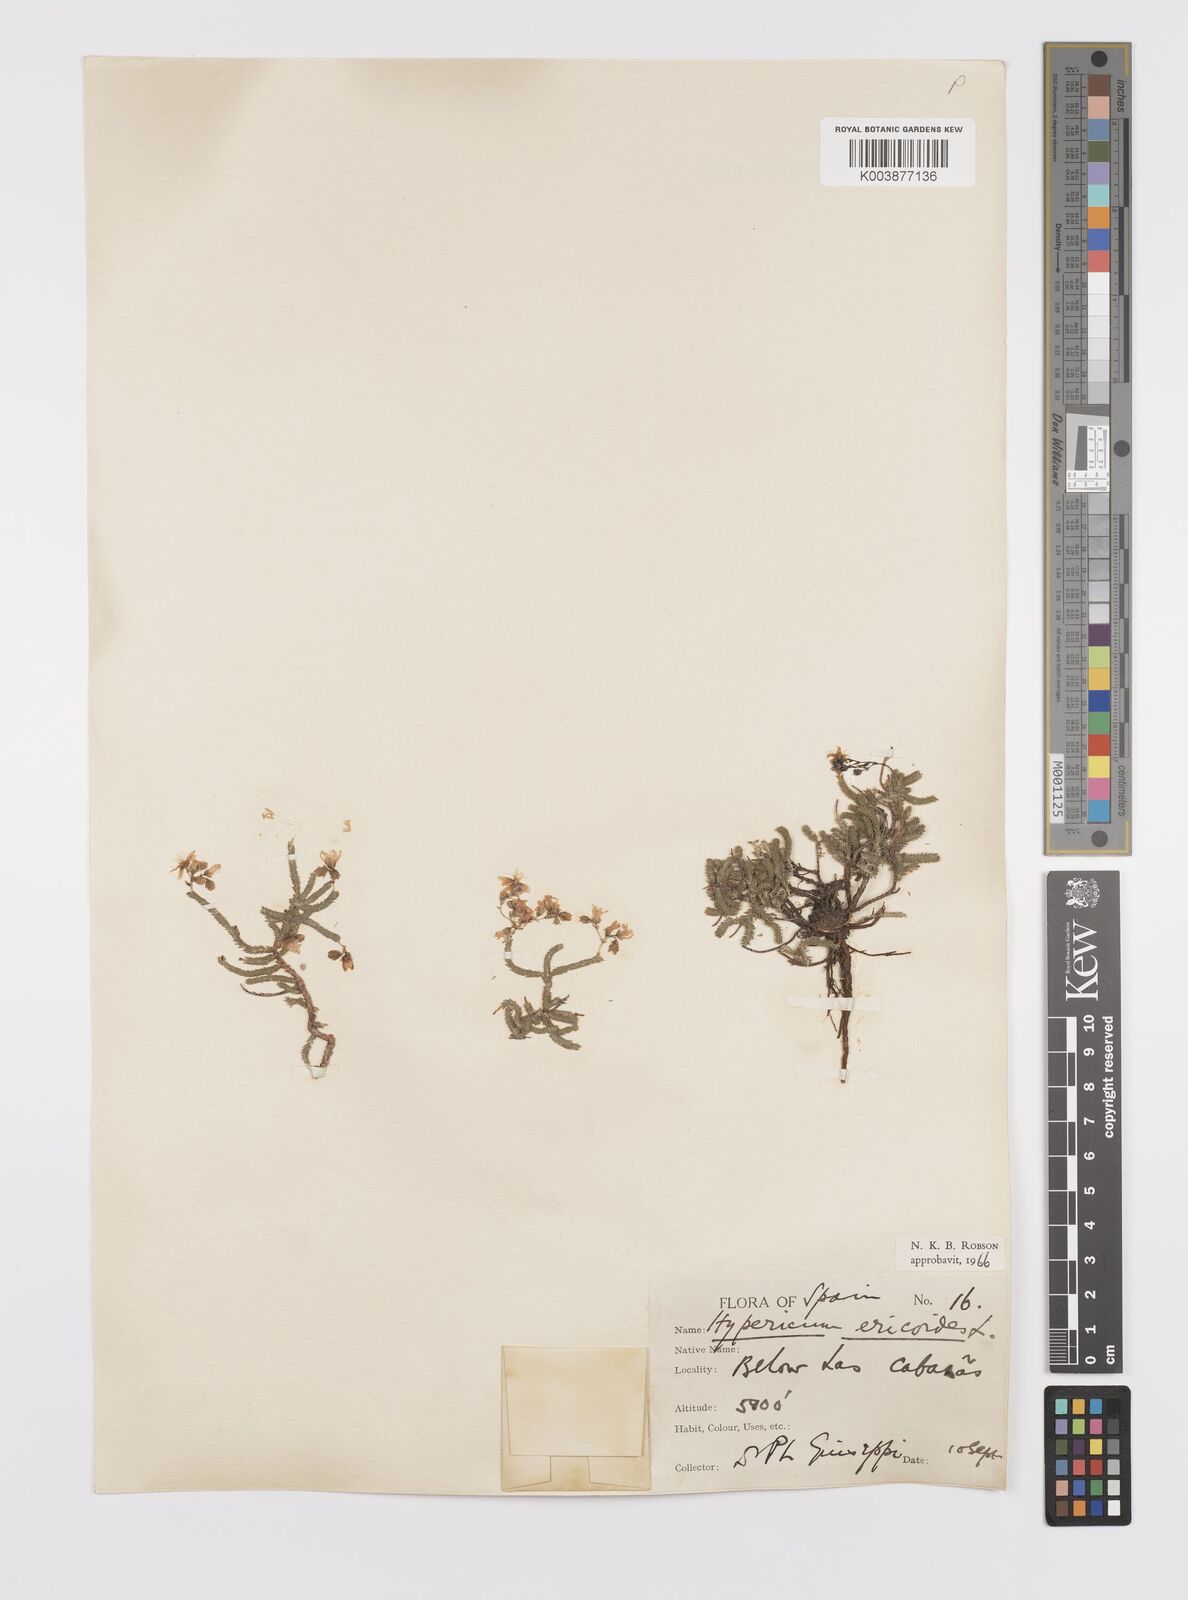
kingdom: Plantae
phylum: Tracheophyta
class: Magnoliopsida
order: Malpighiales
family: Hypericaceae
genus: Hypericum
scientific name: Hypericum ericoides
